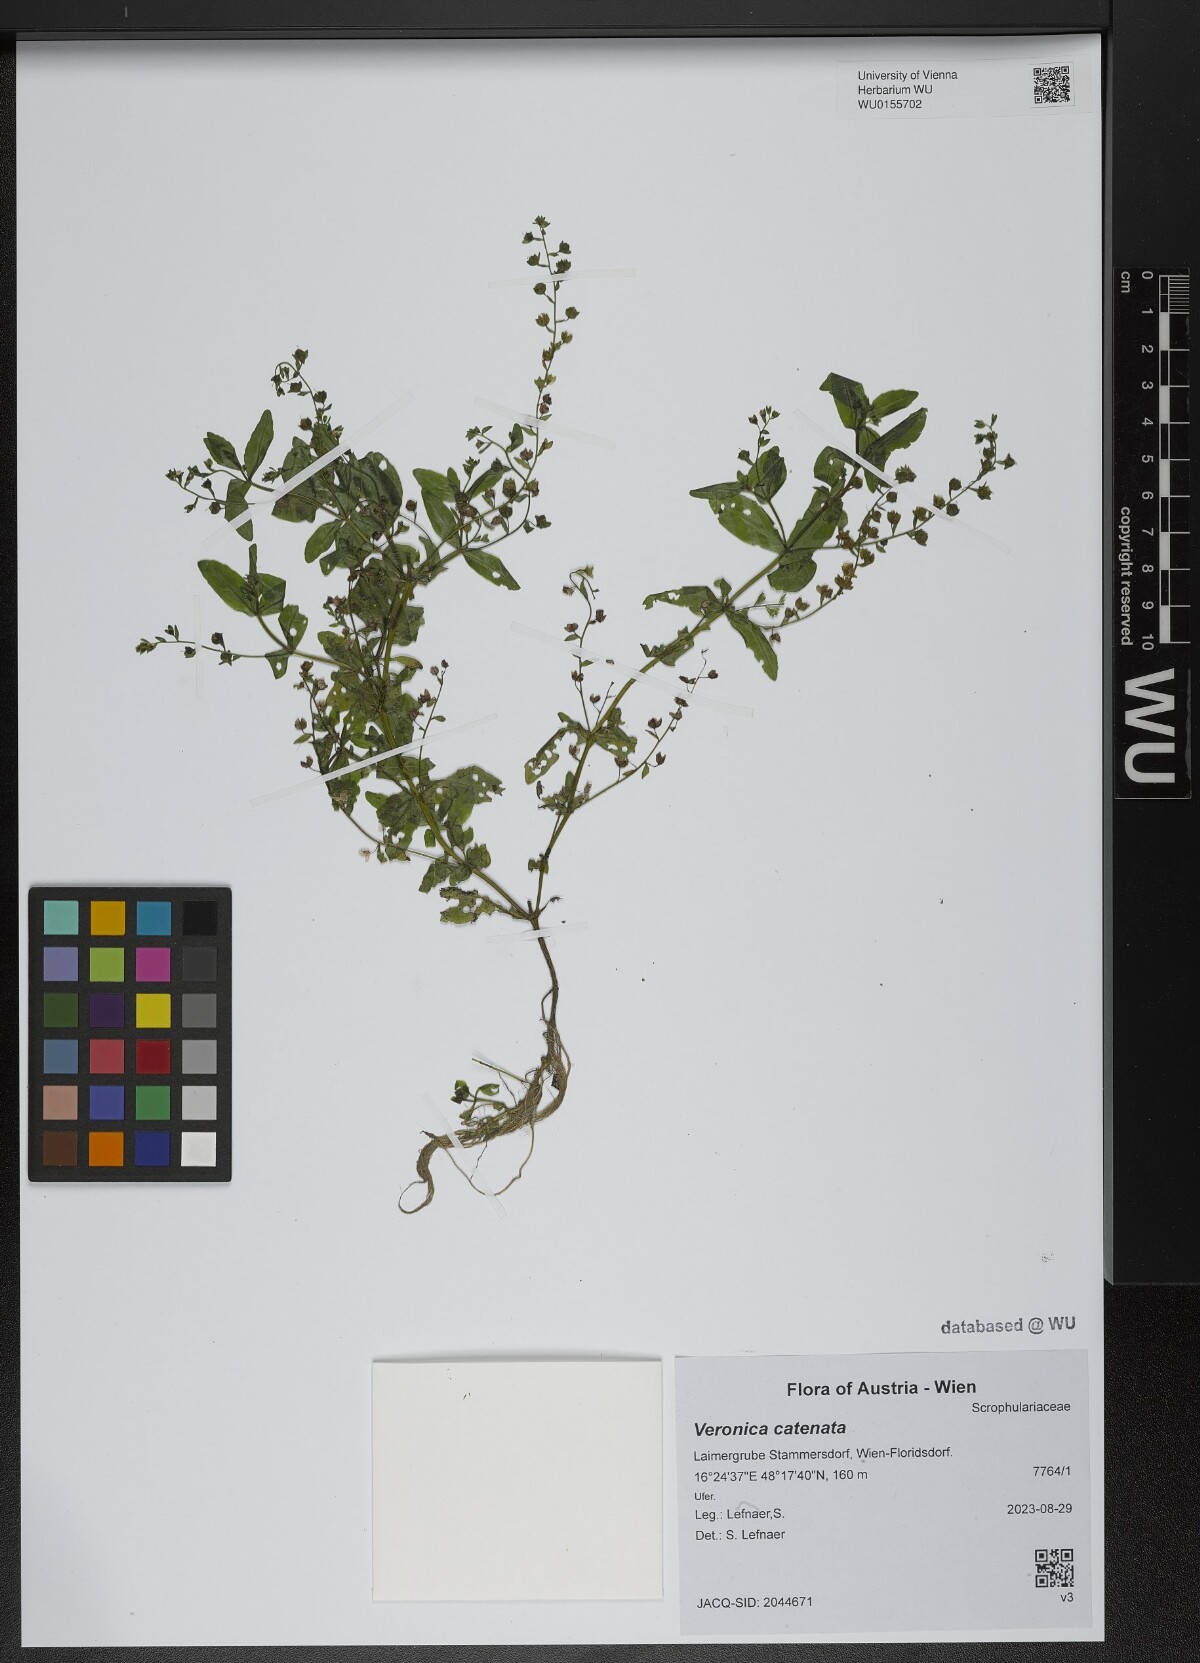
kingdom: Plantae
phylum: Tracheophyta
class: Magnoliopsida
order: Lamiales
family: Plantaginaceae
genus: Veronica
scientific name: Veronica catenata
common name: Pink water-speedwell
